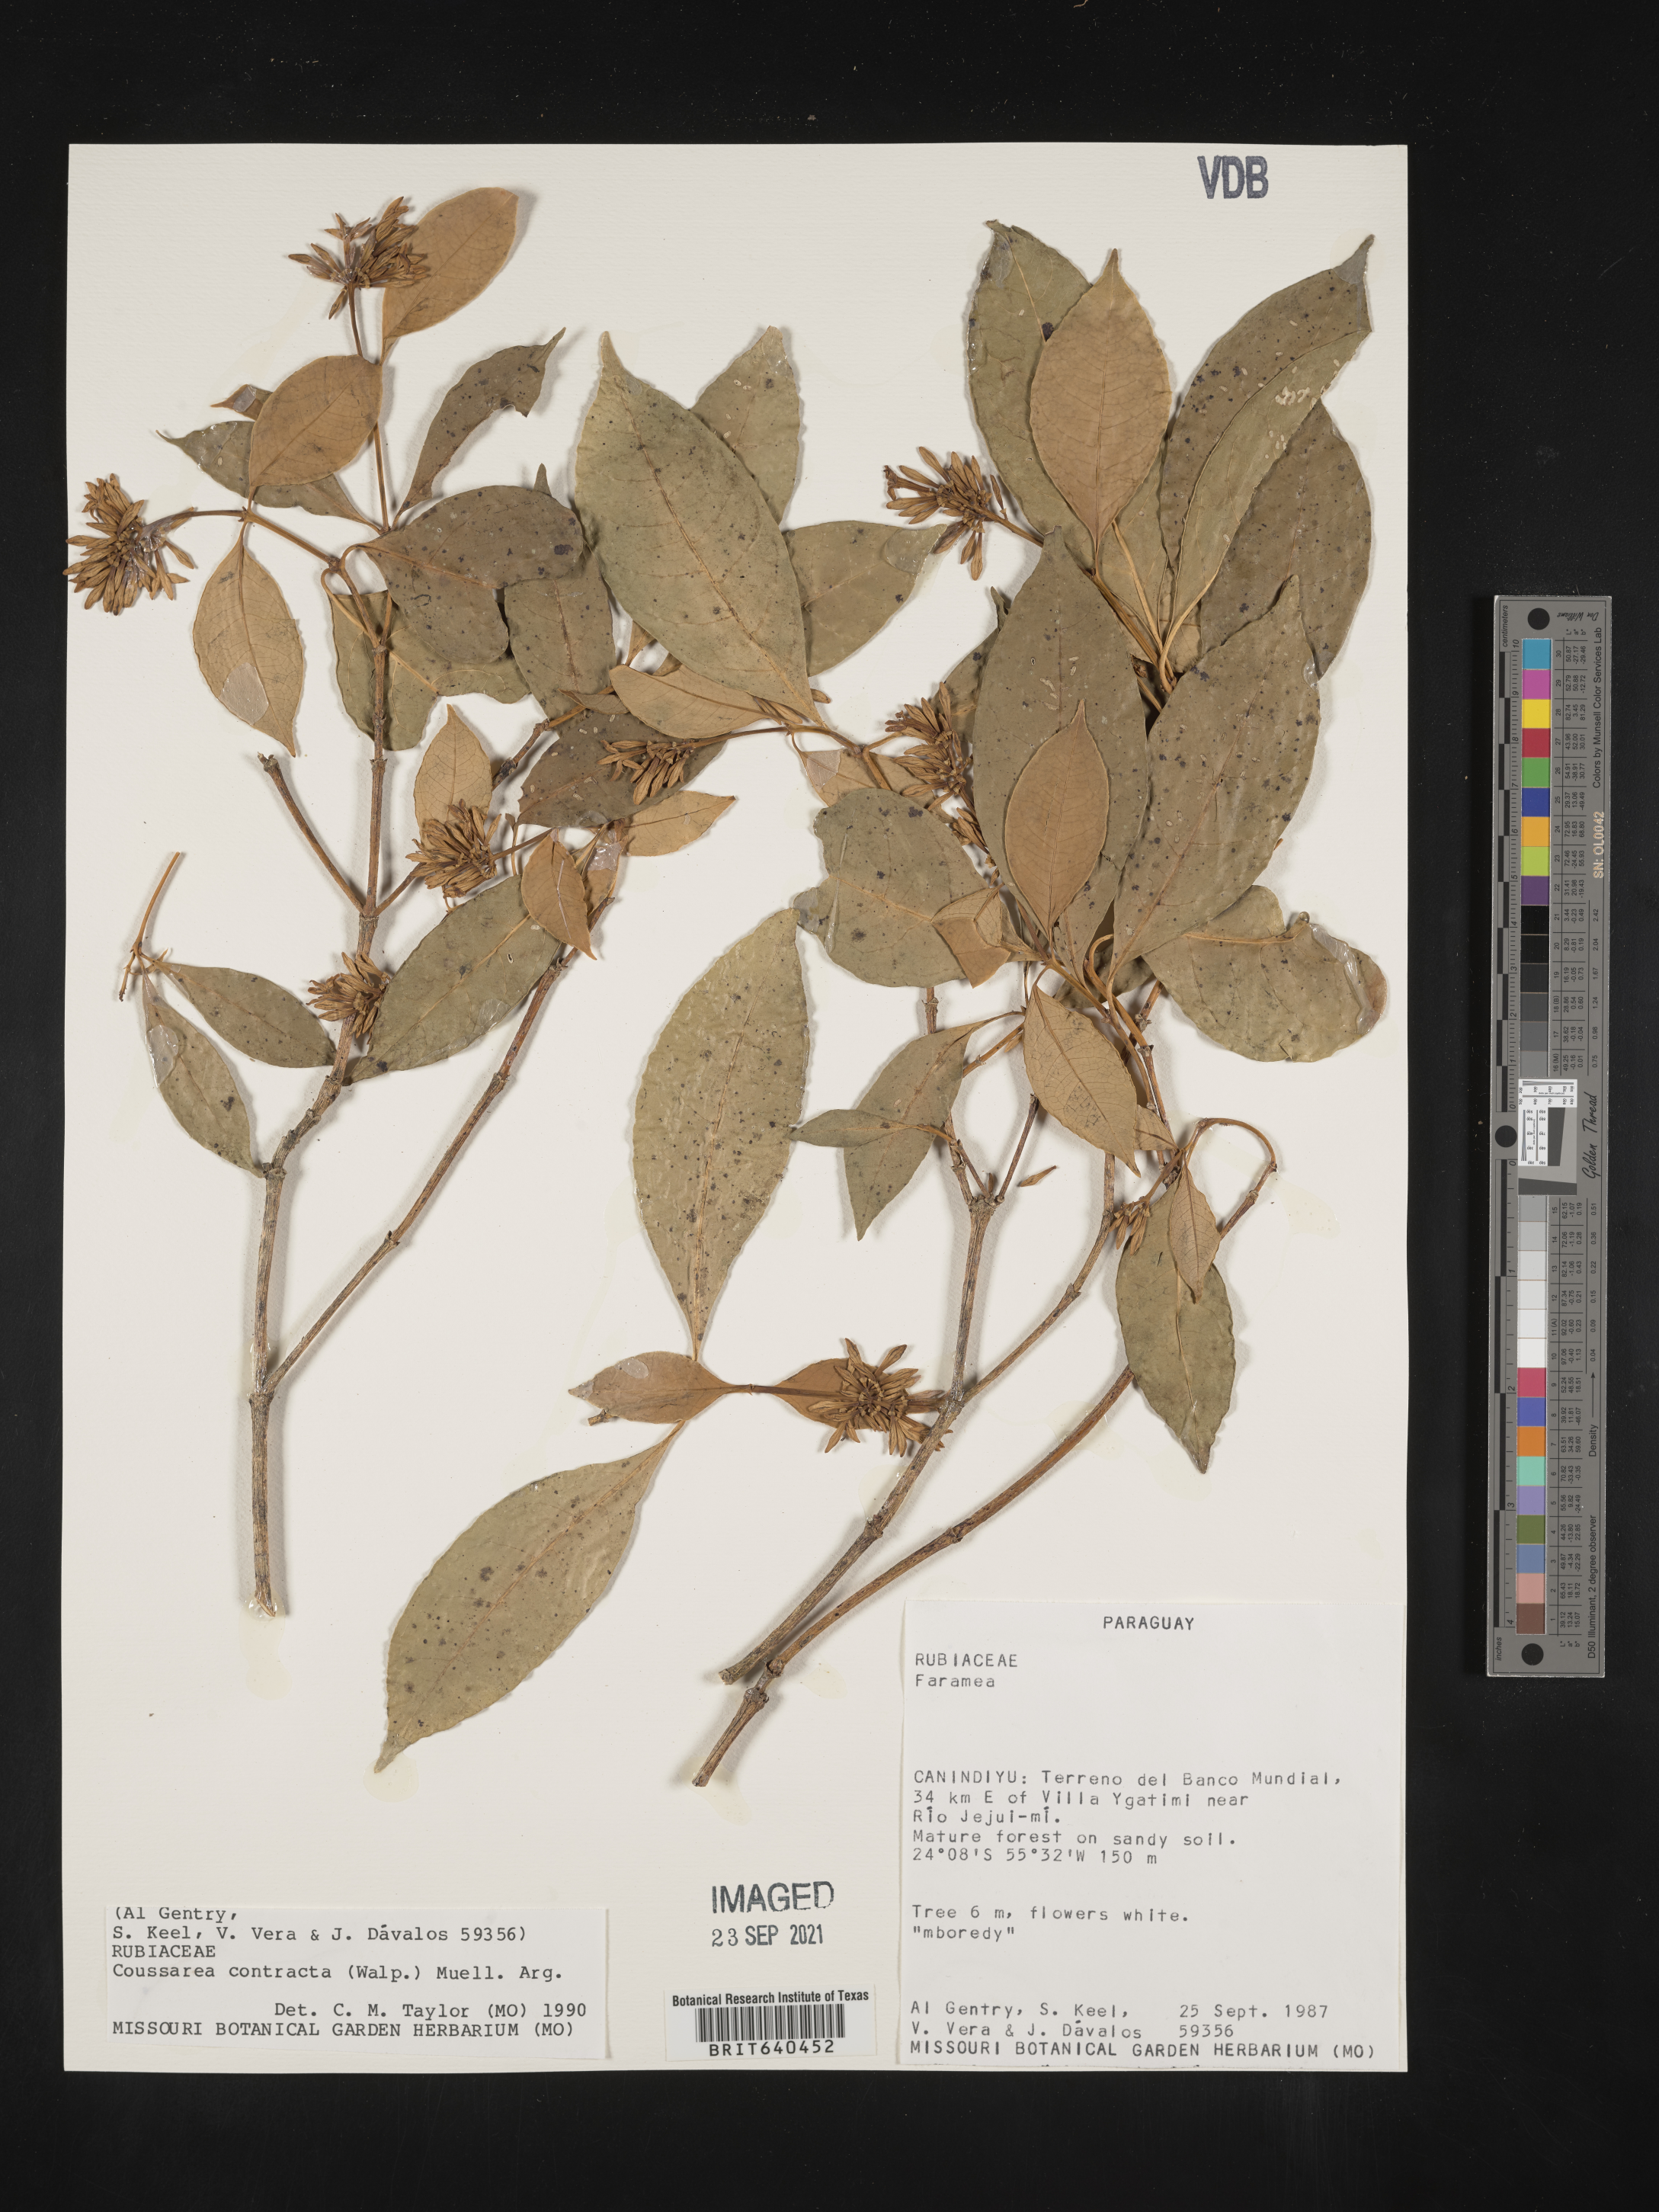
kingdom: Plantae
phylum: Tracheophyta
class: Magnoliopsida
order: Gentianales
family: Rubiaceae
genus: Coussarea
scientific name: Coussarea
